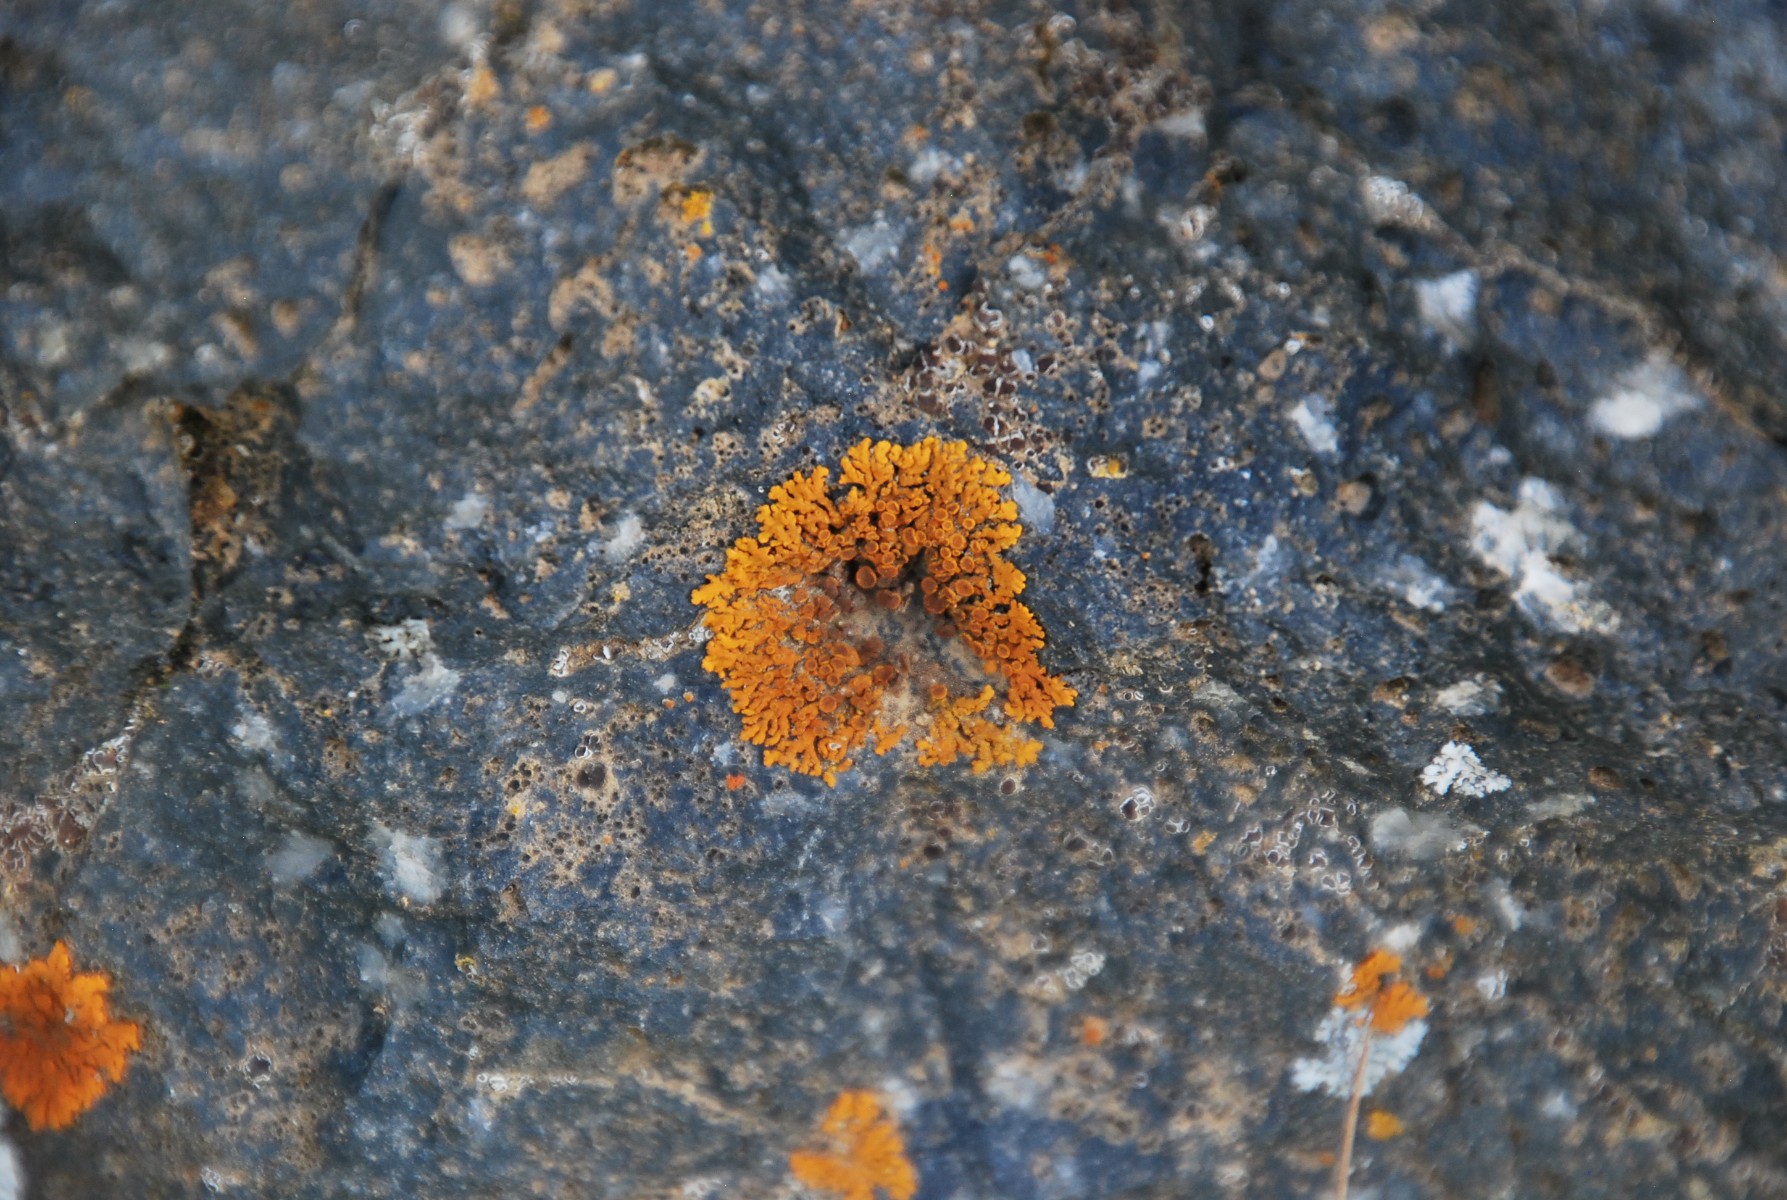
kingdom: Fungi
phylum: Ascomycota
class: Lecanoromycetes
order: Teloschistales
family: Teloschistaceae
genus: Xanthoria
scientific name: Xanthoria elegans
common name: fjeld-væggelav
